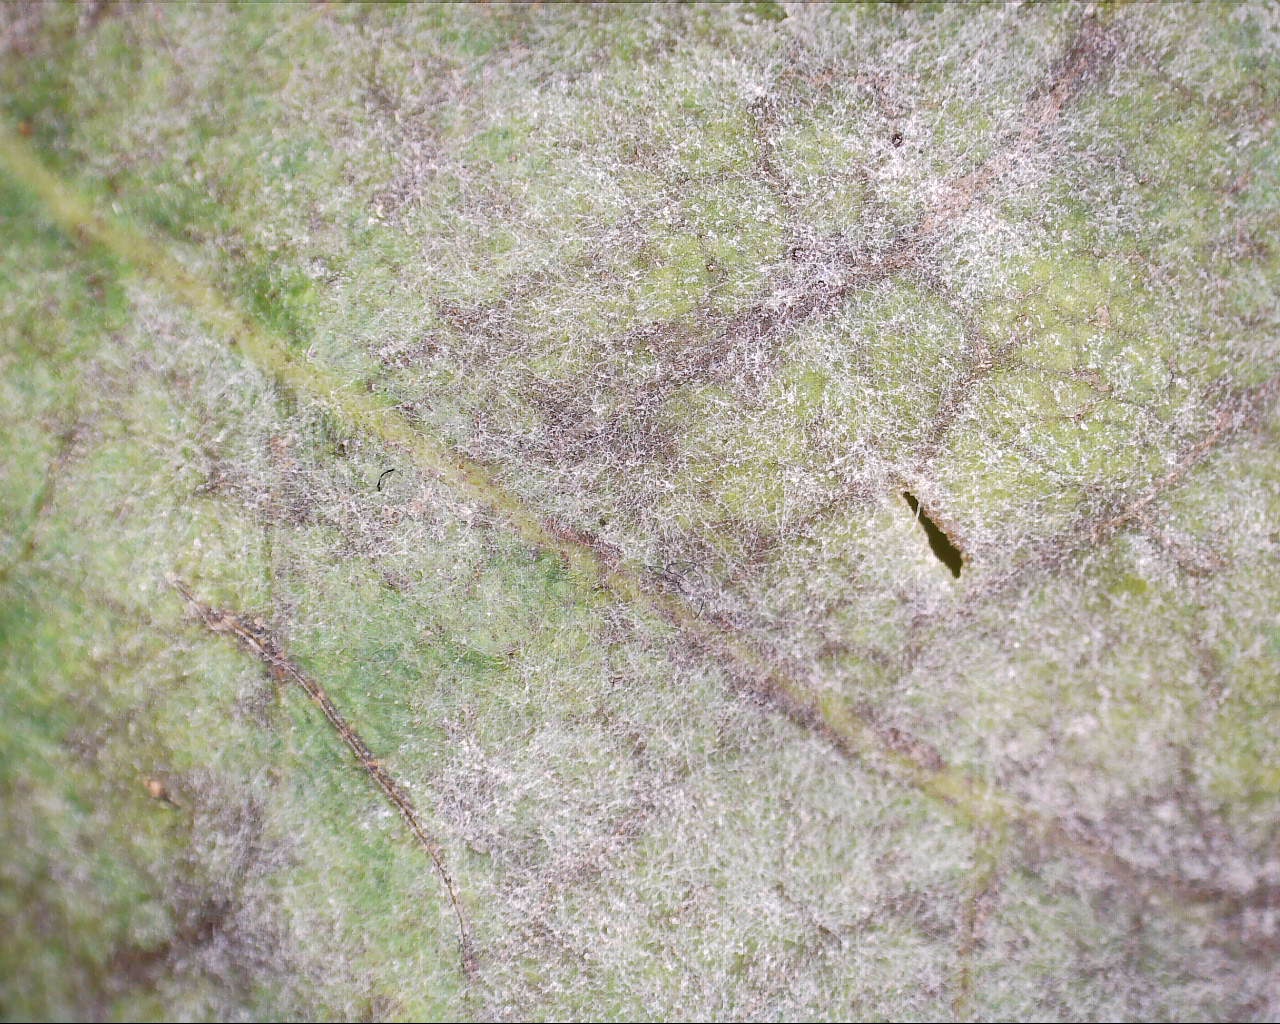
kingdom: Fungi
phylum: Ascomycota
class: Leotiomycetes
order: Helotiales
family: Erysiphaceae
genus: Erysiphe
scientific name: Erysiphe alphitoides
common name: ege-meldug
